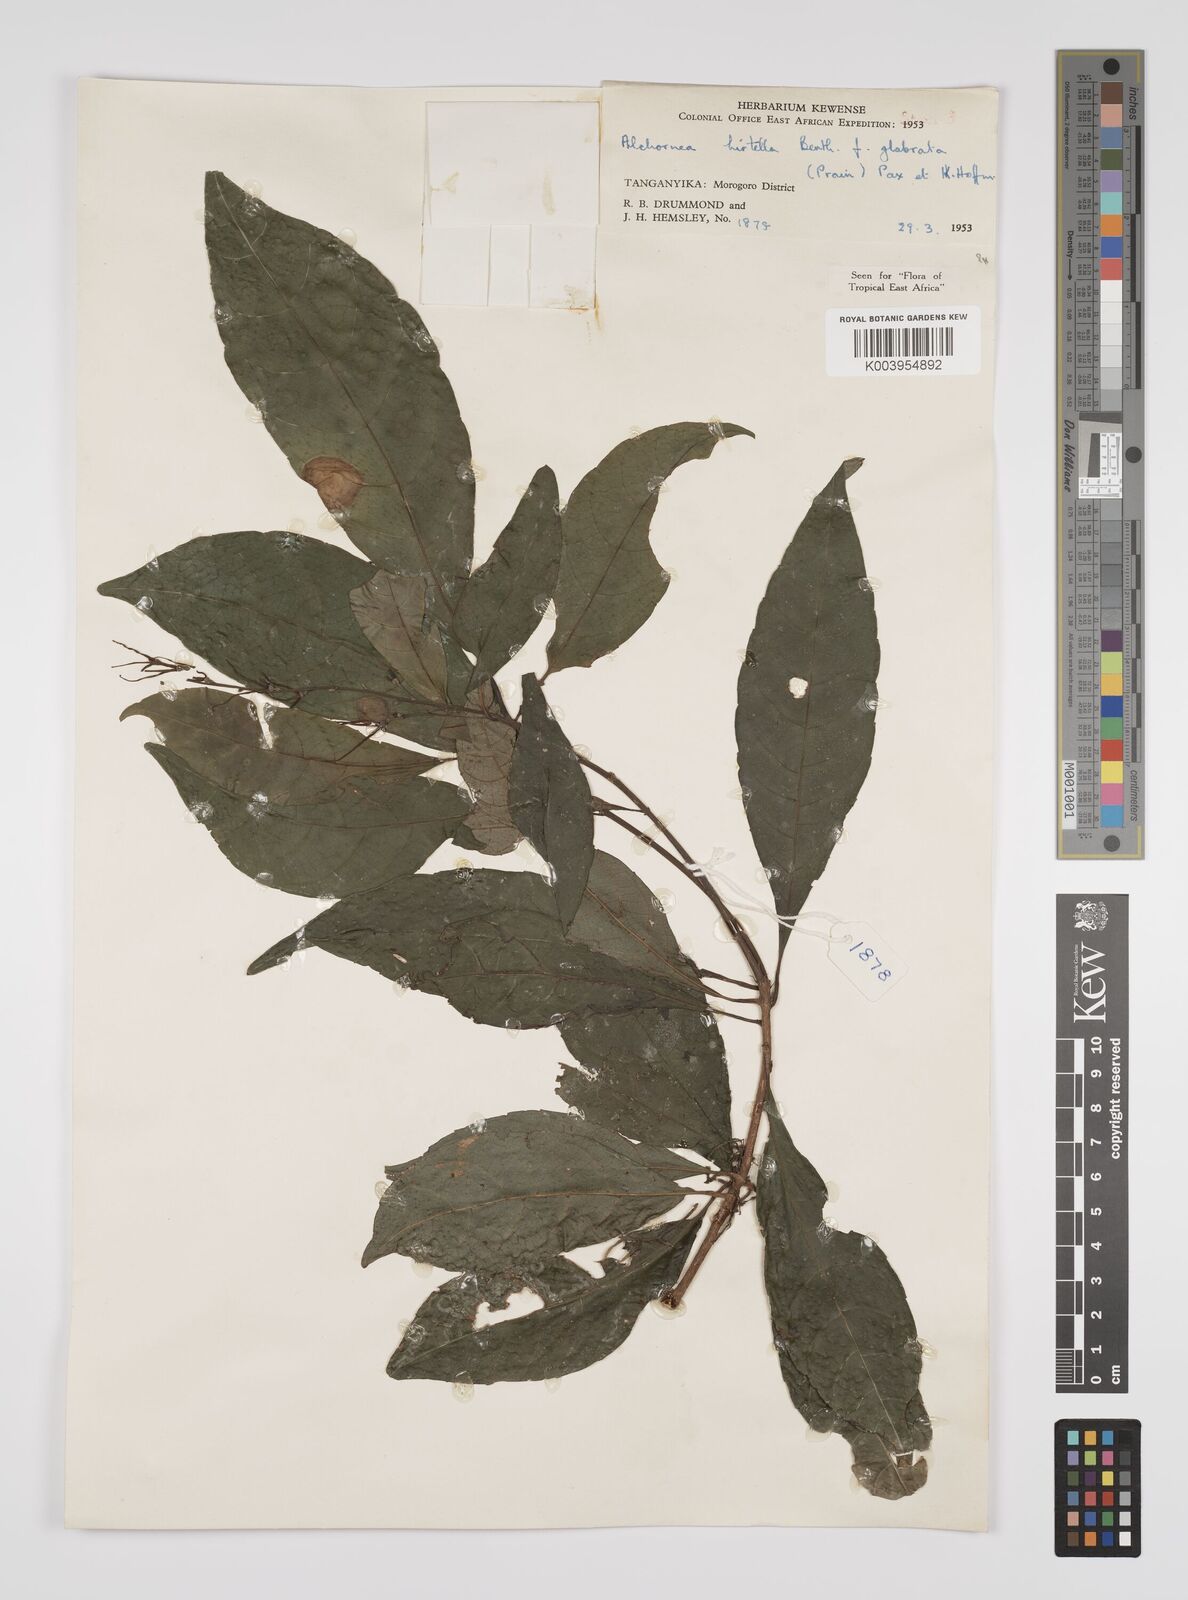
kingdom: Plantae
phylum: Tracheophyta
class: Magnoliopsida
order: Malpighiales
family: Euphorbiaceae
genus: Alchornea
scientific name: Alchornea hirtella
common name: Forest bead-string
